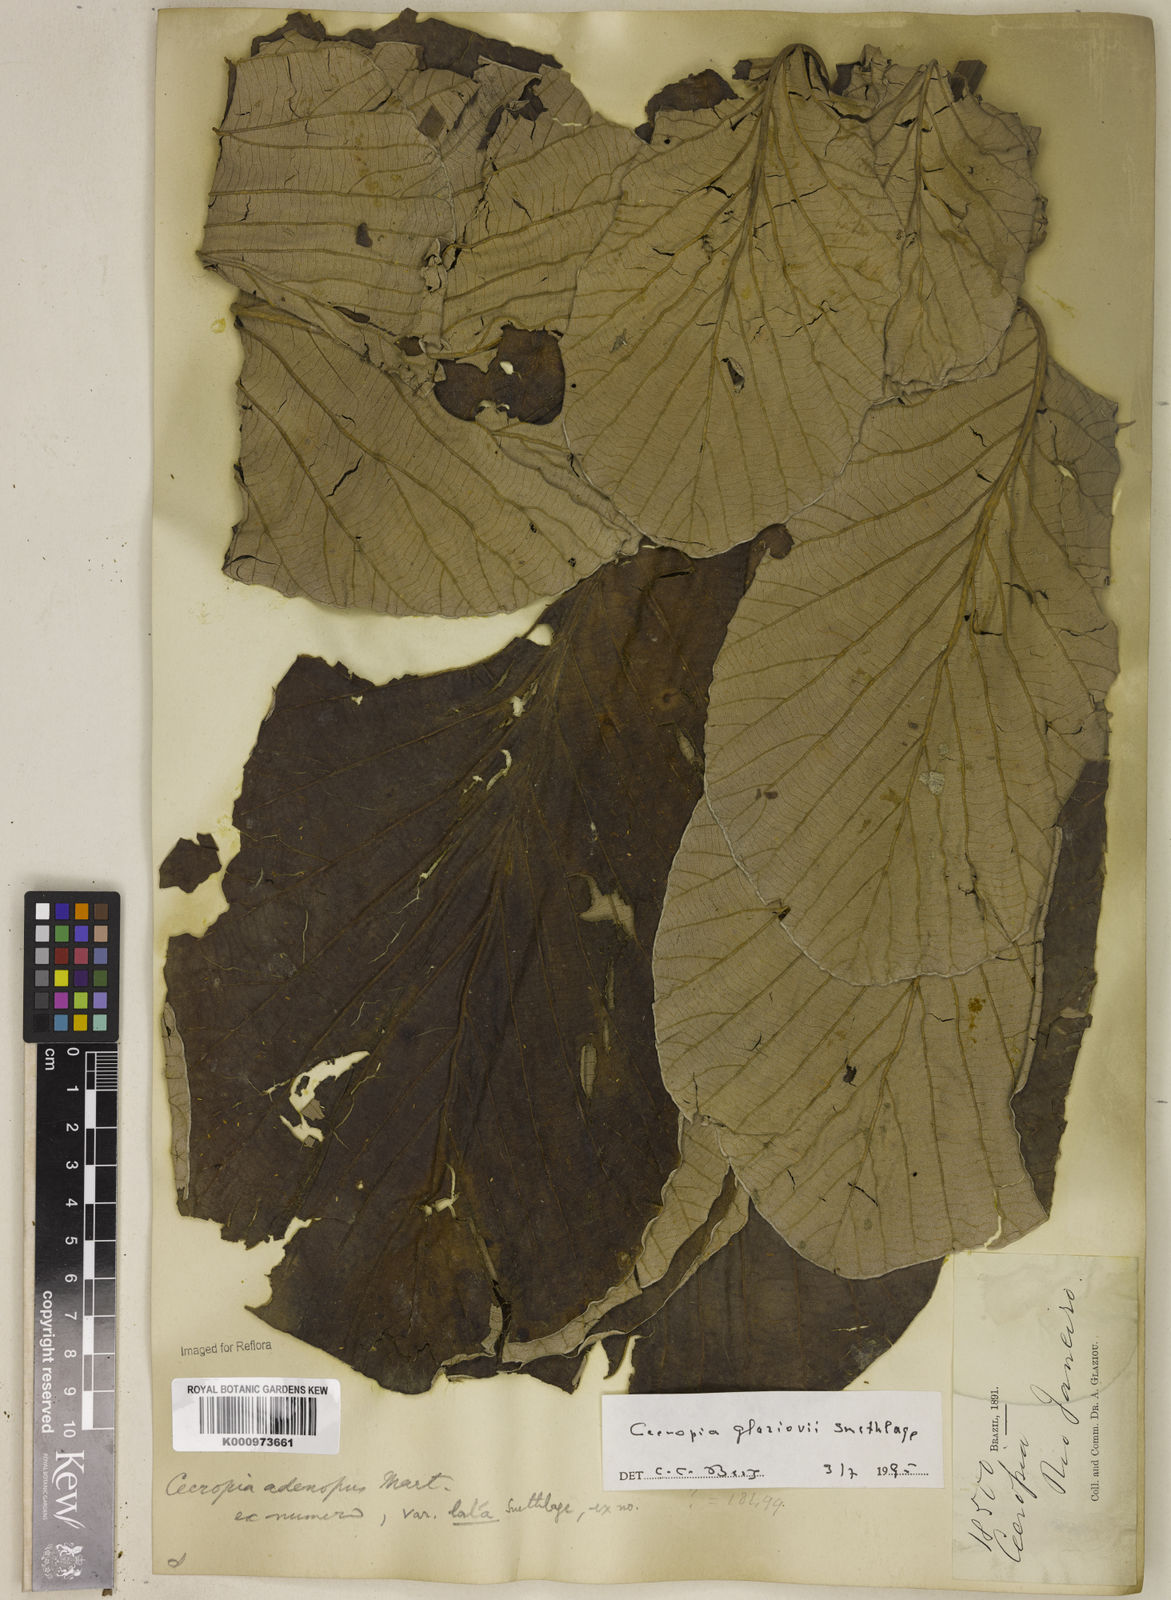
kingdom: Plantae
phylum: Tracheophyta
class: Magnoliopsida
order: Rosales
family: Urticaceae
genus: Cecropia
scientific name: Cecropia glaziovii
